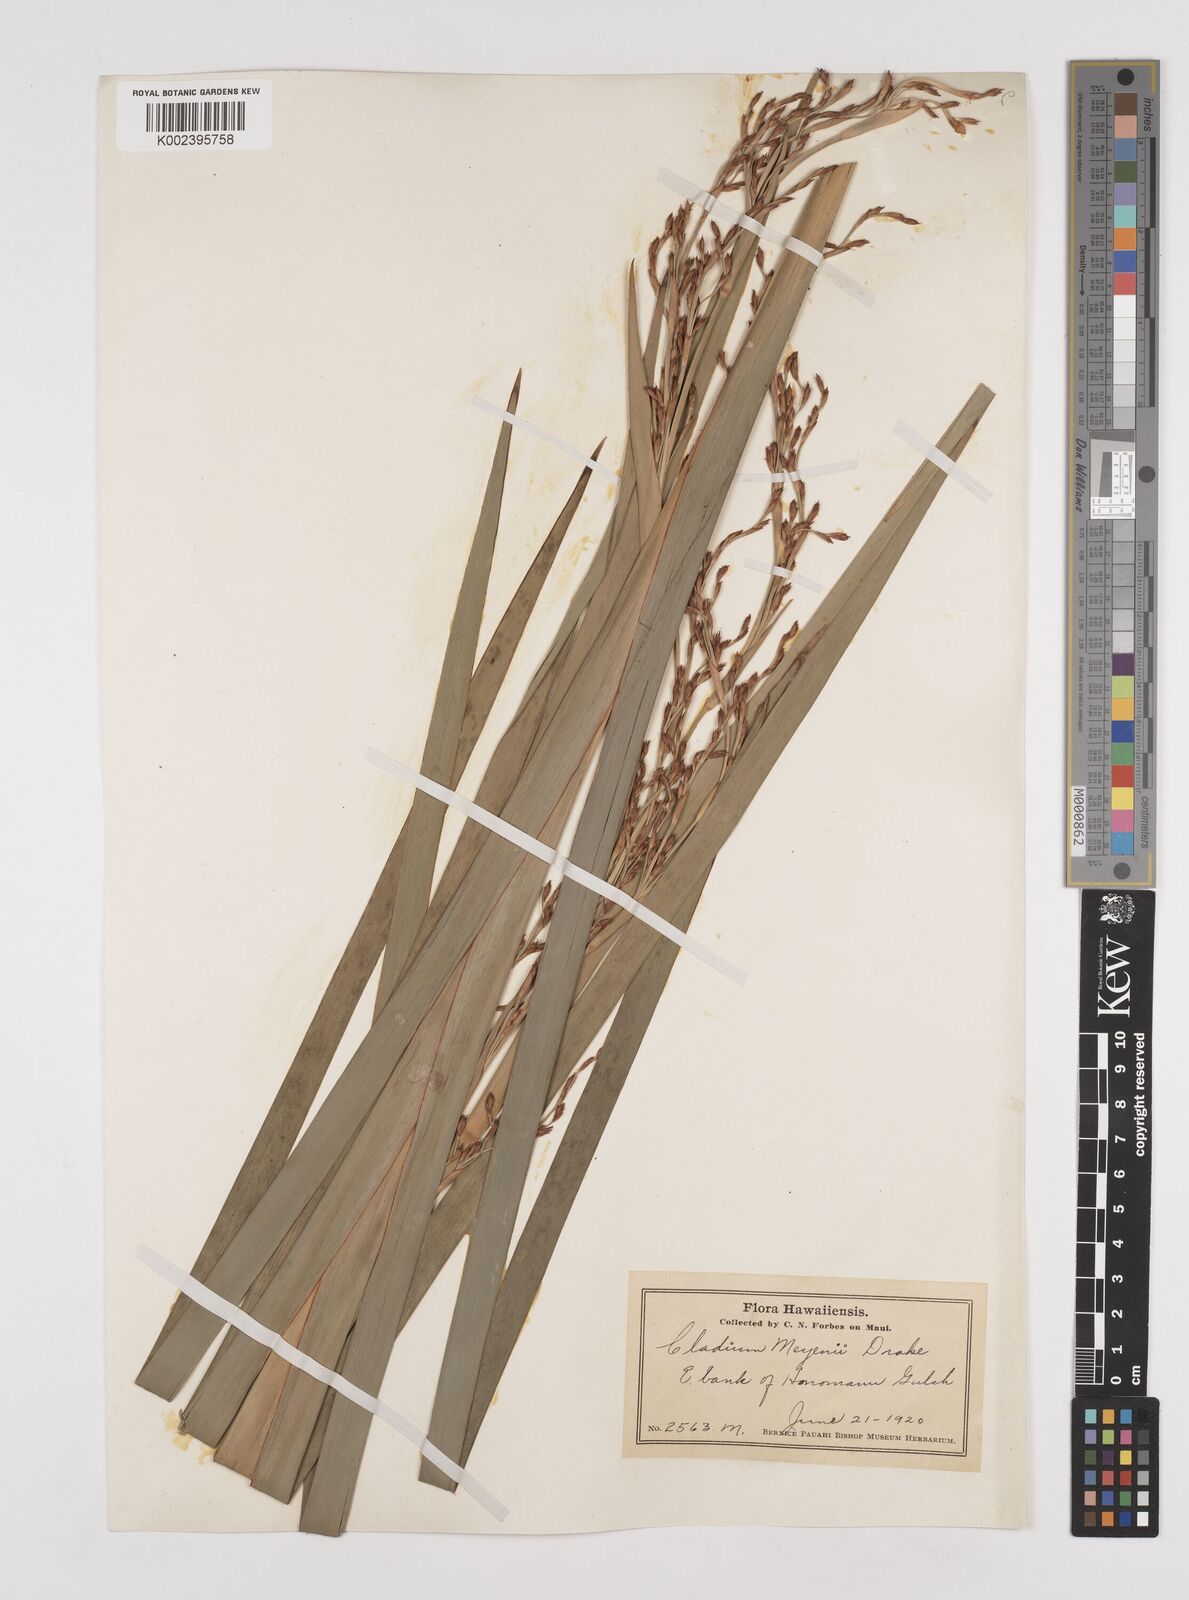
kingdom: Plantae
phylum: Tracheophyta
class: Liliopsida
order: Poales
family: Cyperaceae
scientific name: Cyperaceae
